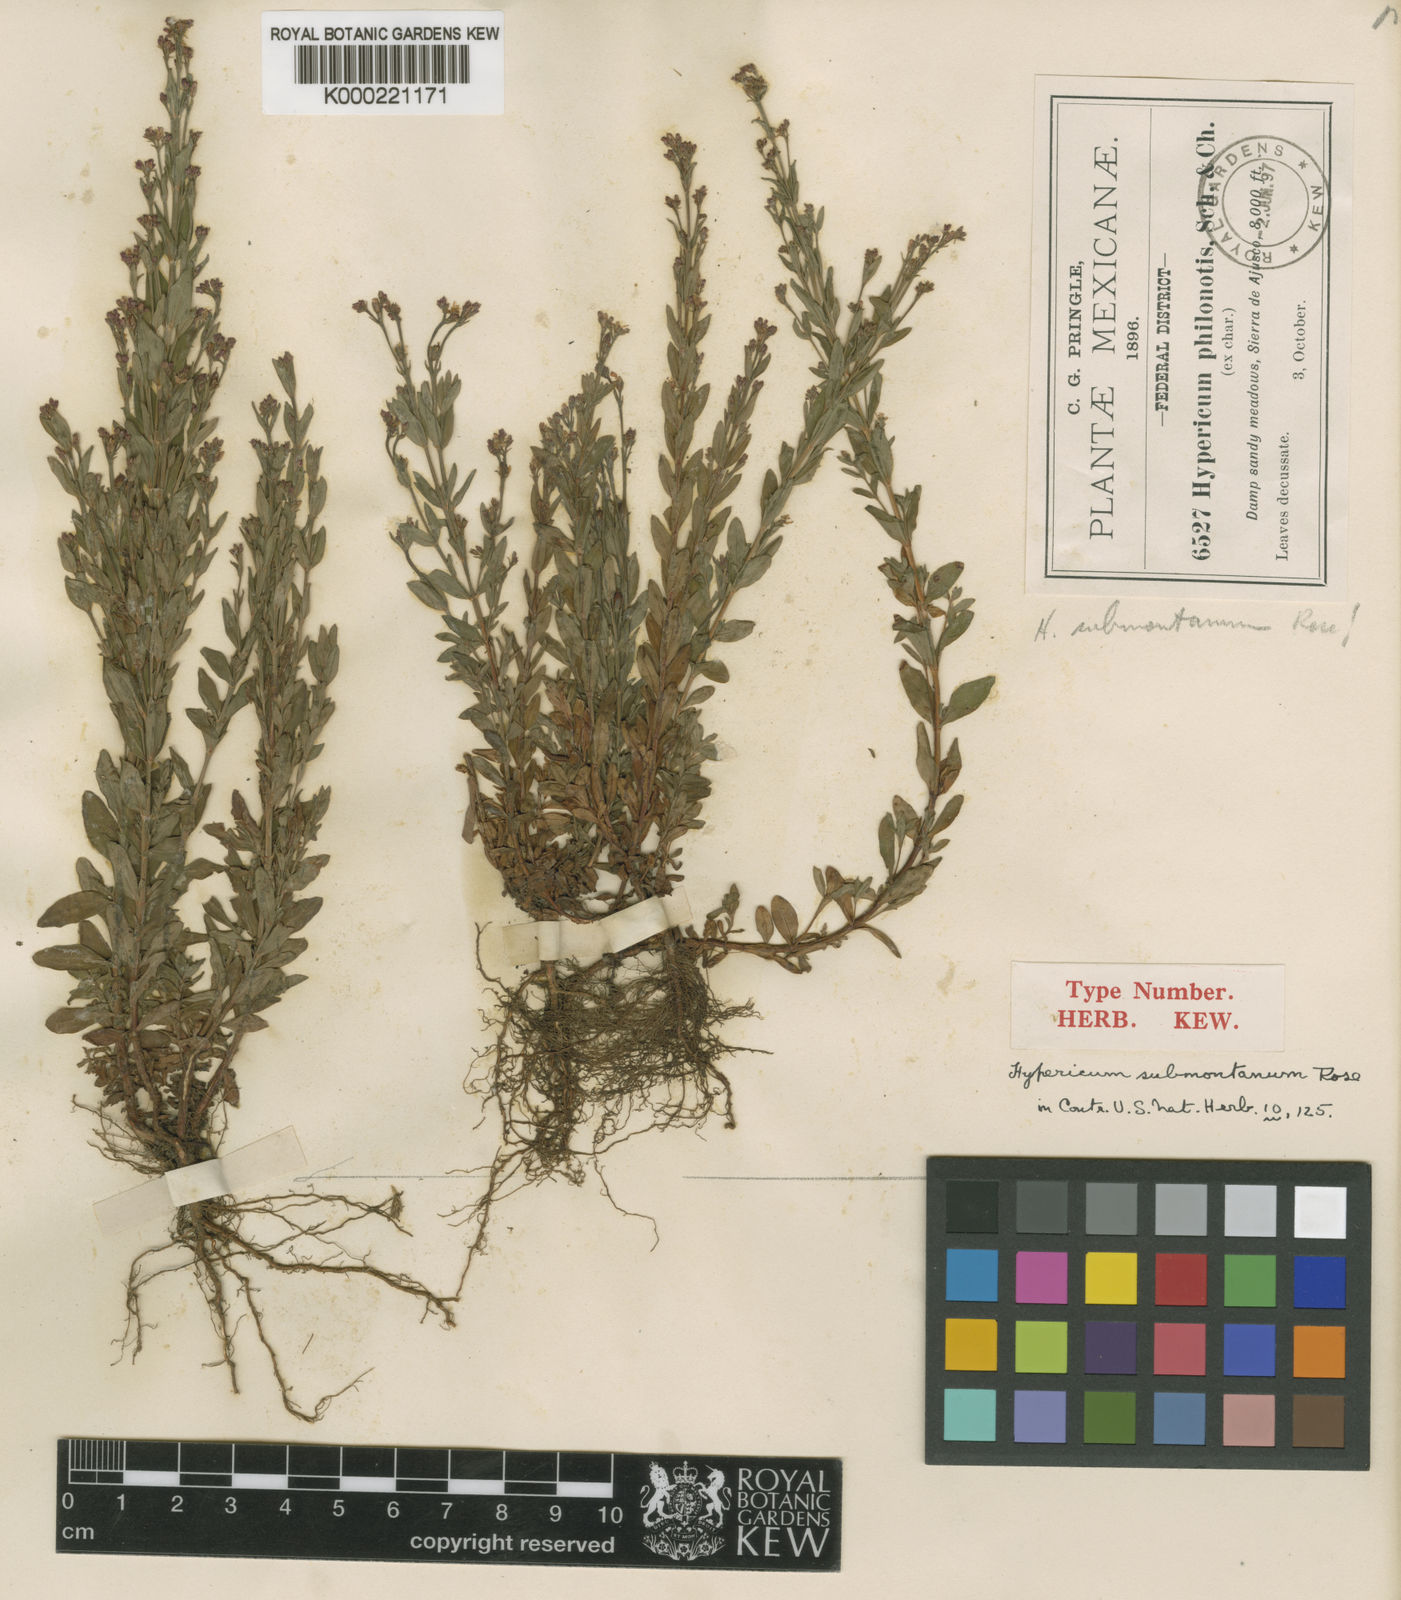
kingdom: Plantae
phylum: Tracheophyta
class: Magnoliopsida
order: Malpighiales
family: Hypericaceae
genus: Hypericum
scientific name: Hypericum philonotis
